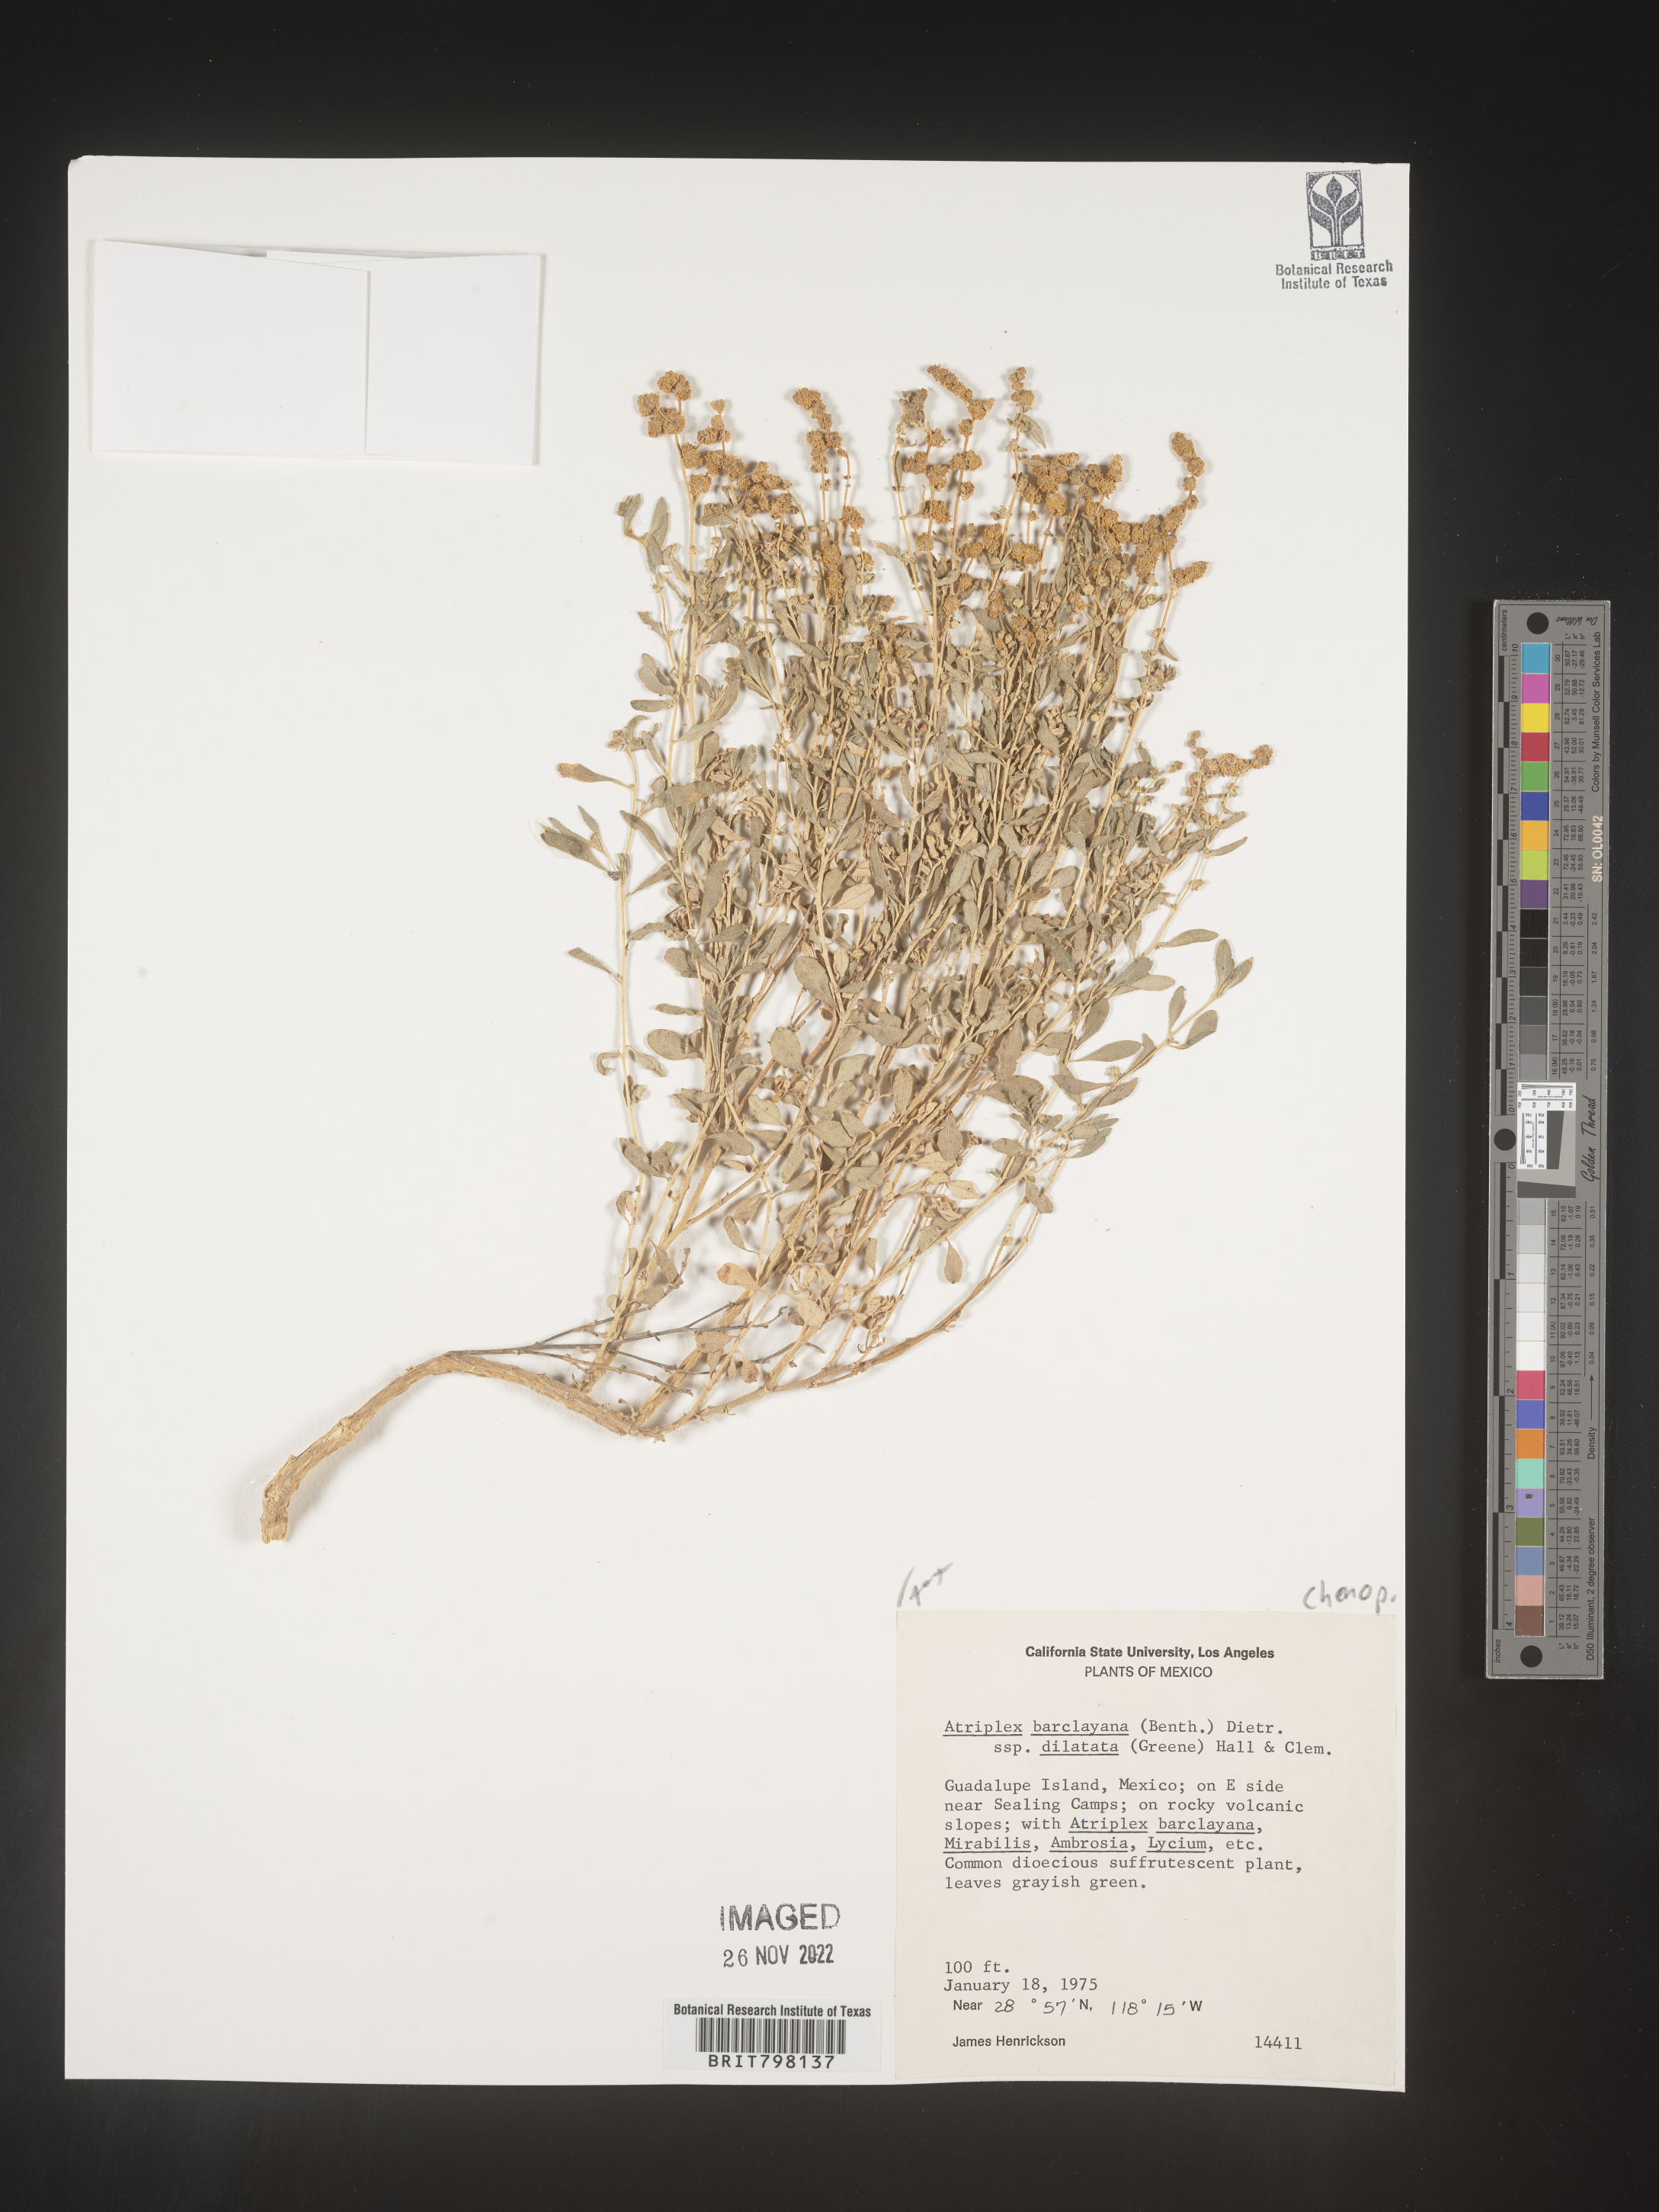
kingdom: Plantae
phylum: Tracheophyta
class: Magnoliopsida
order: Caryophyllales
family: Amaranthaceae
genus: Atriplex
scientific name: Atriplex
